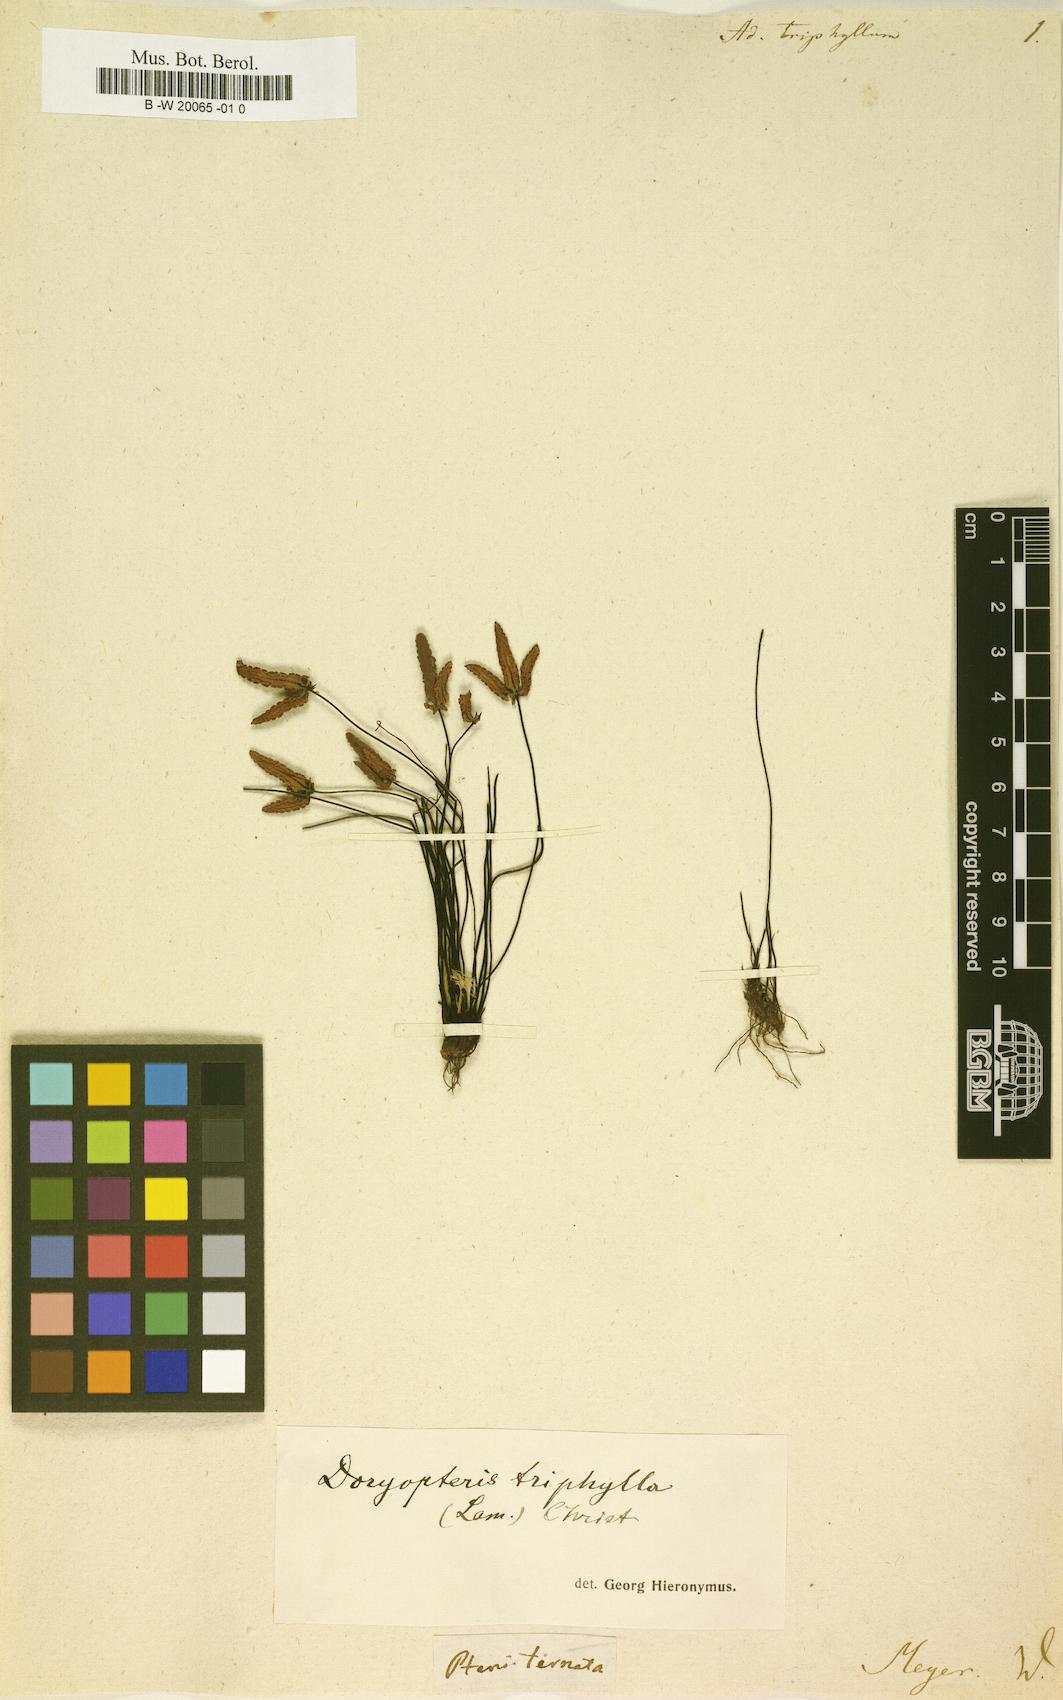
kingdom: Plantae
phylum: Tracheophyta
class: Polypodiopsida
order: Polypodiales
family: Pteridaceae
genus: Doryopteris
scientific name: Doryopteris triphylla
